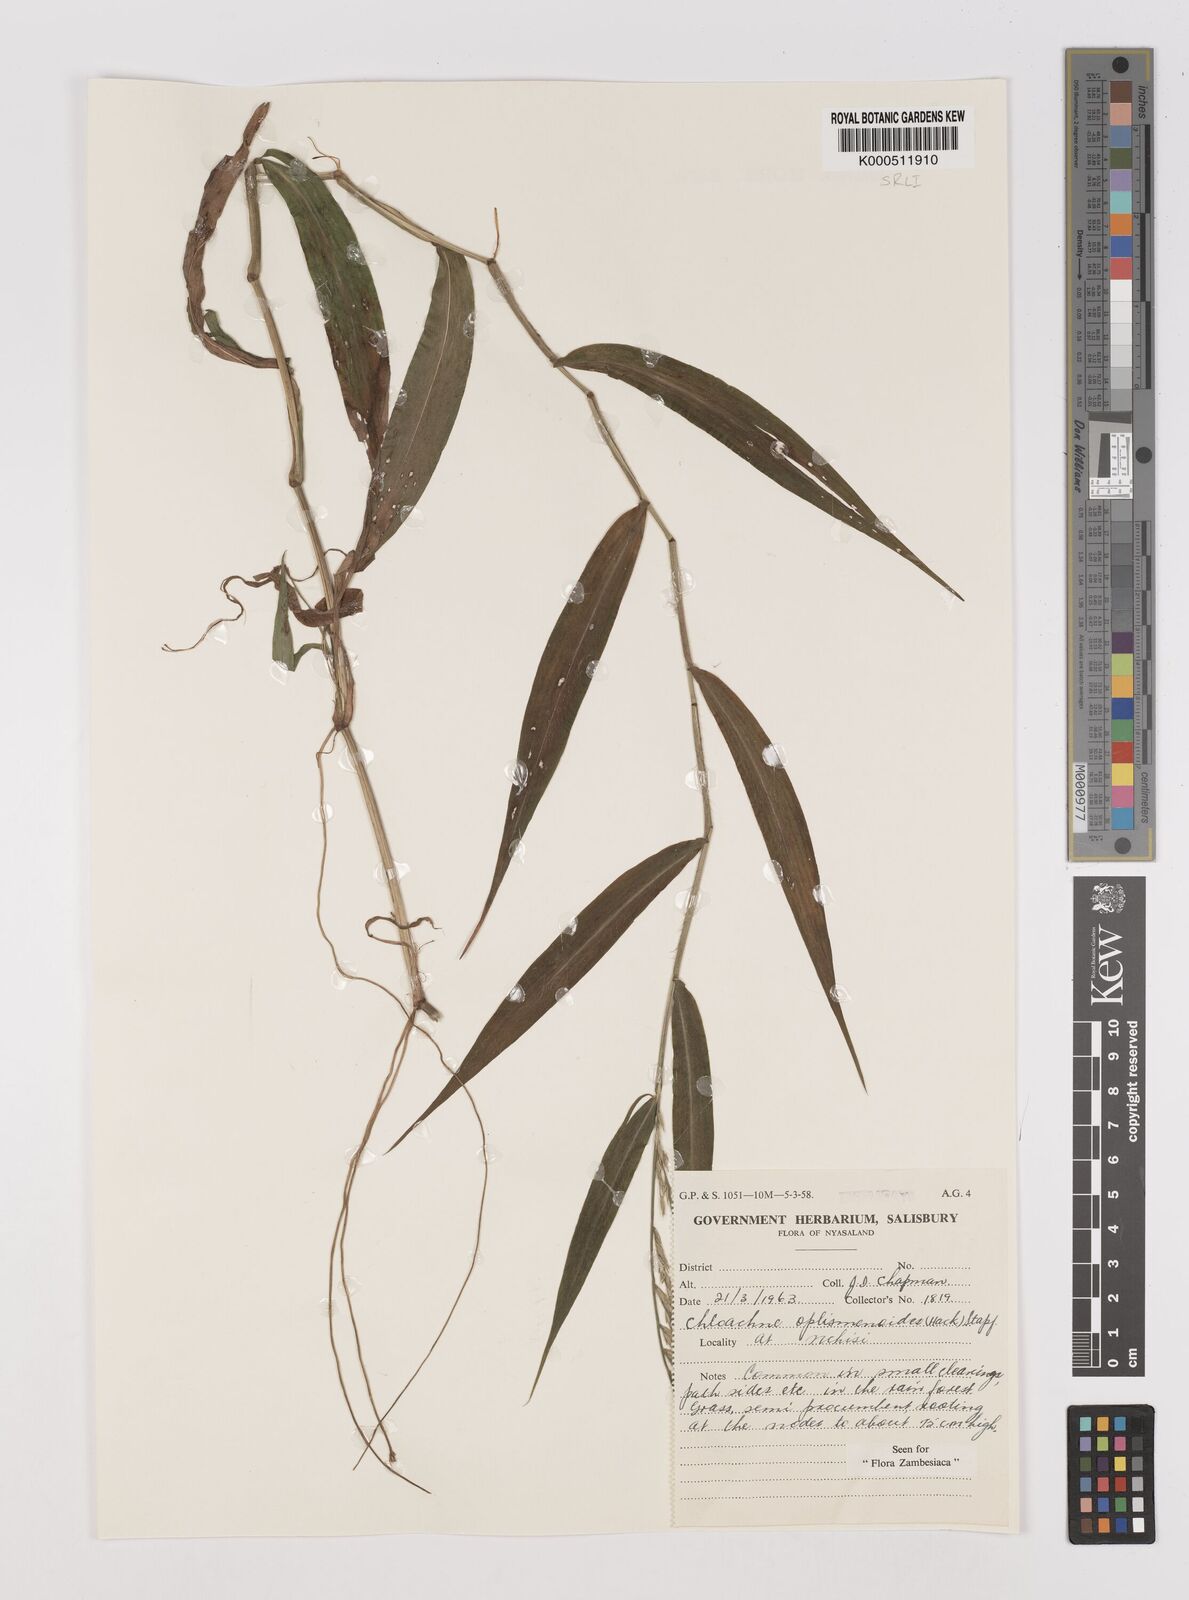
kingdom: Plantae
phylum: Tracheophyta
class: Liliopsida
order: Poales
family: Poaceae
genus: Poecilostachys
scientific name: Poecilostachys oplismenoides
